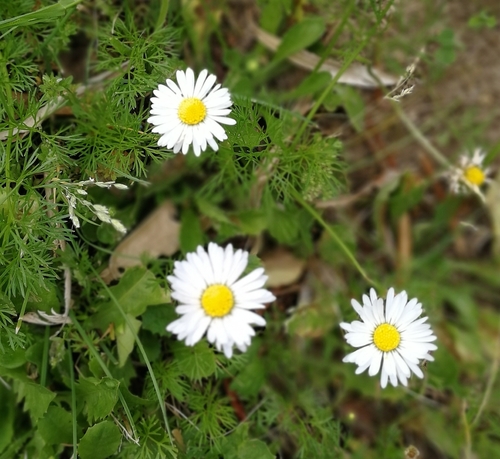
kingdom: Plantae
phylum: Tracheophyta
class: Magnoliopsida
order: Asterales
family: Asteraceae
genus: Bellis
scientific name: Bellis perennis
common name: Lawndaisy
